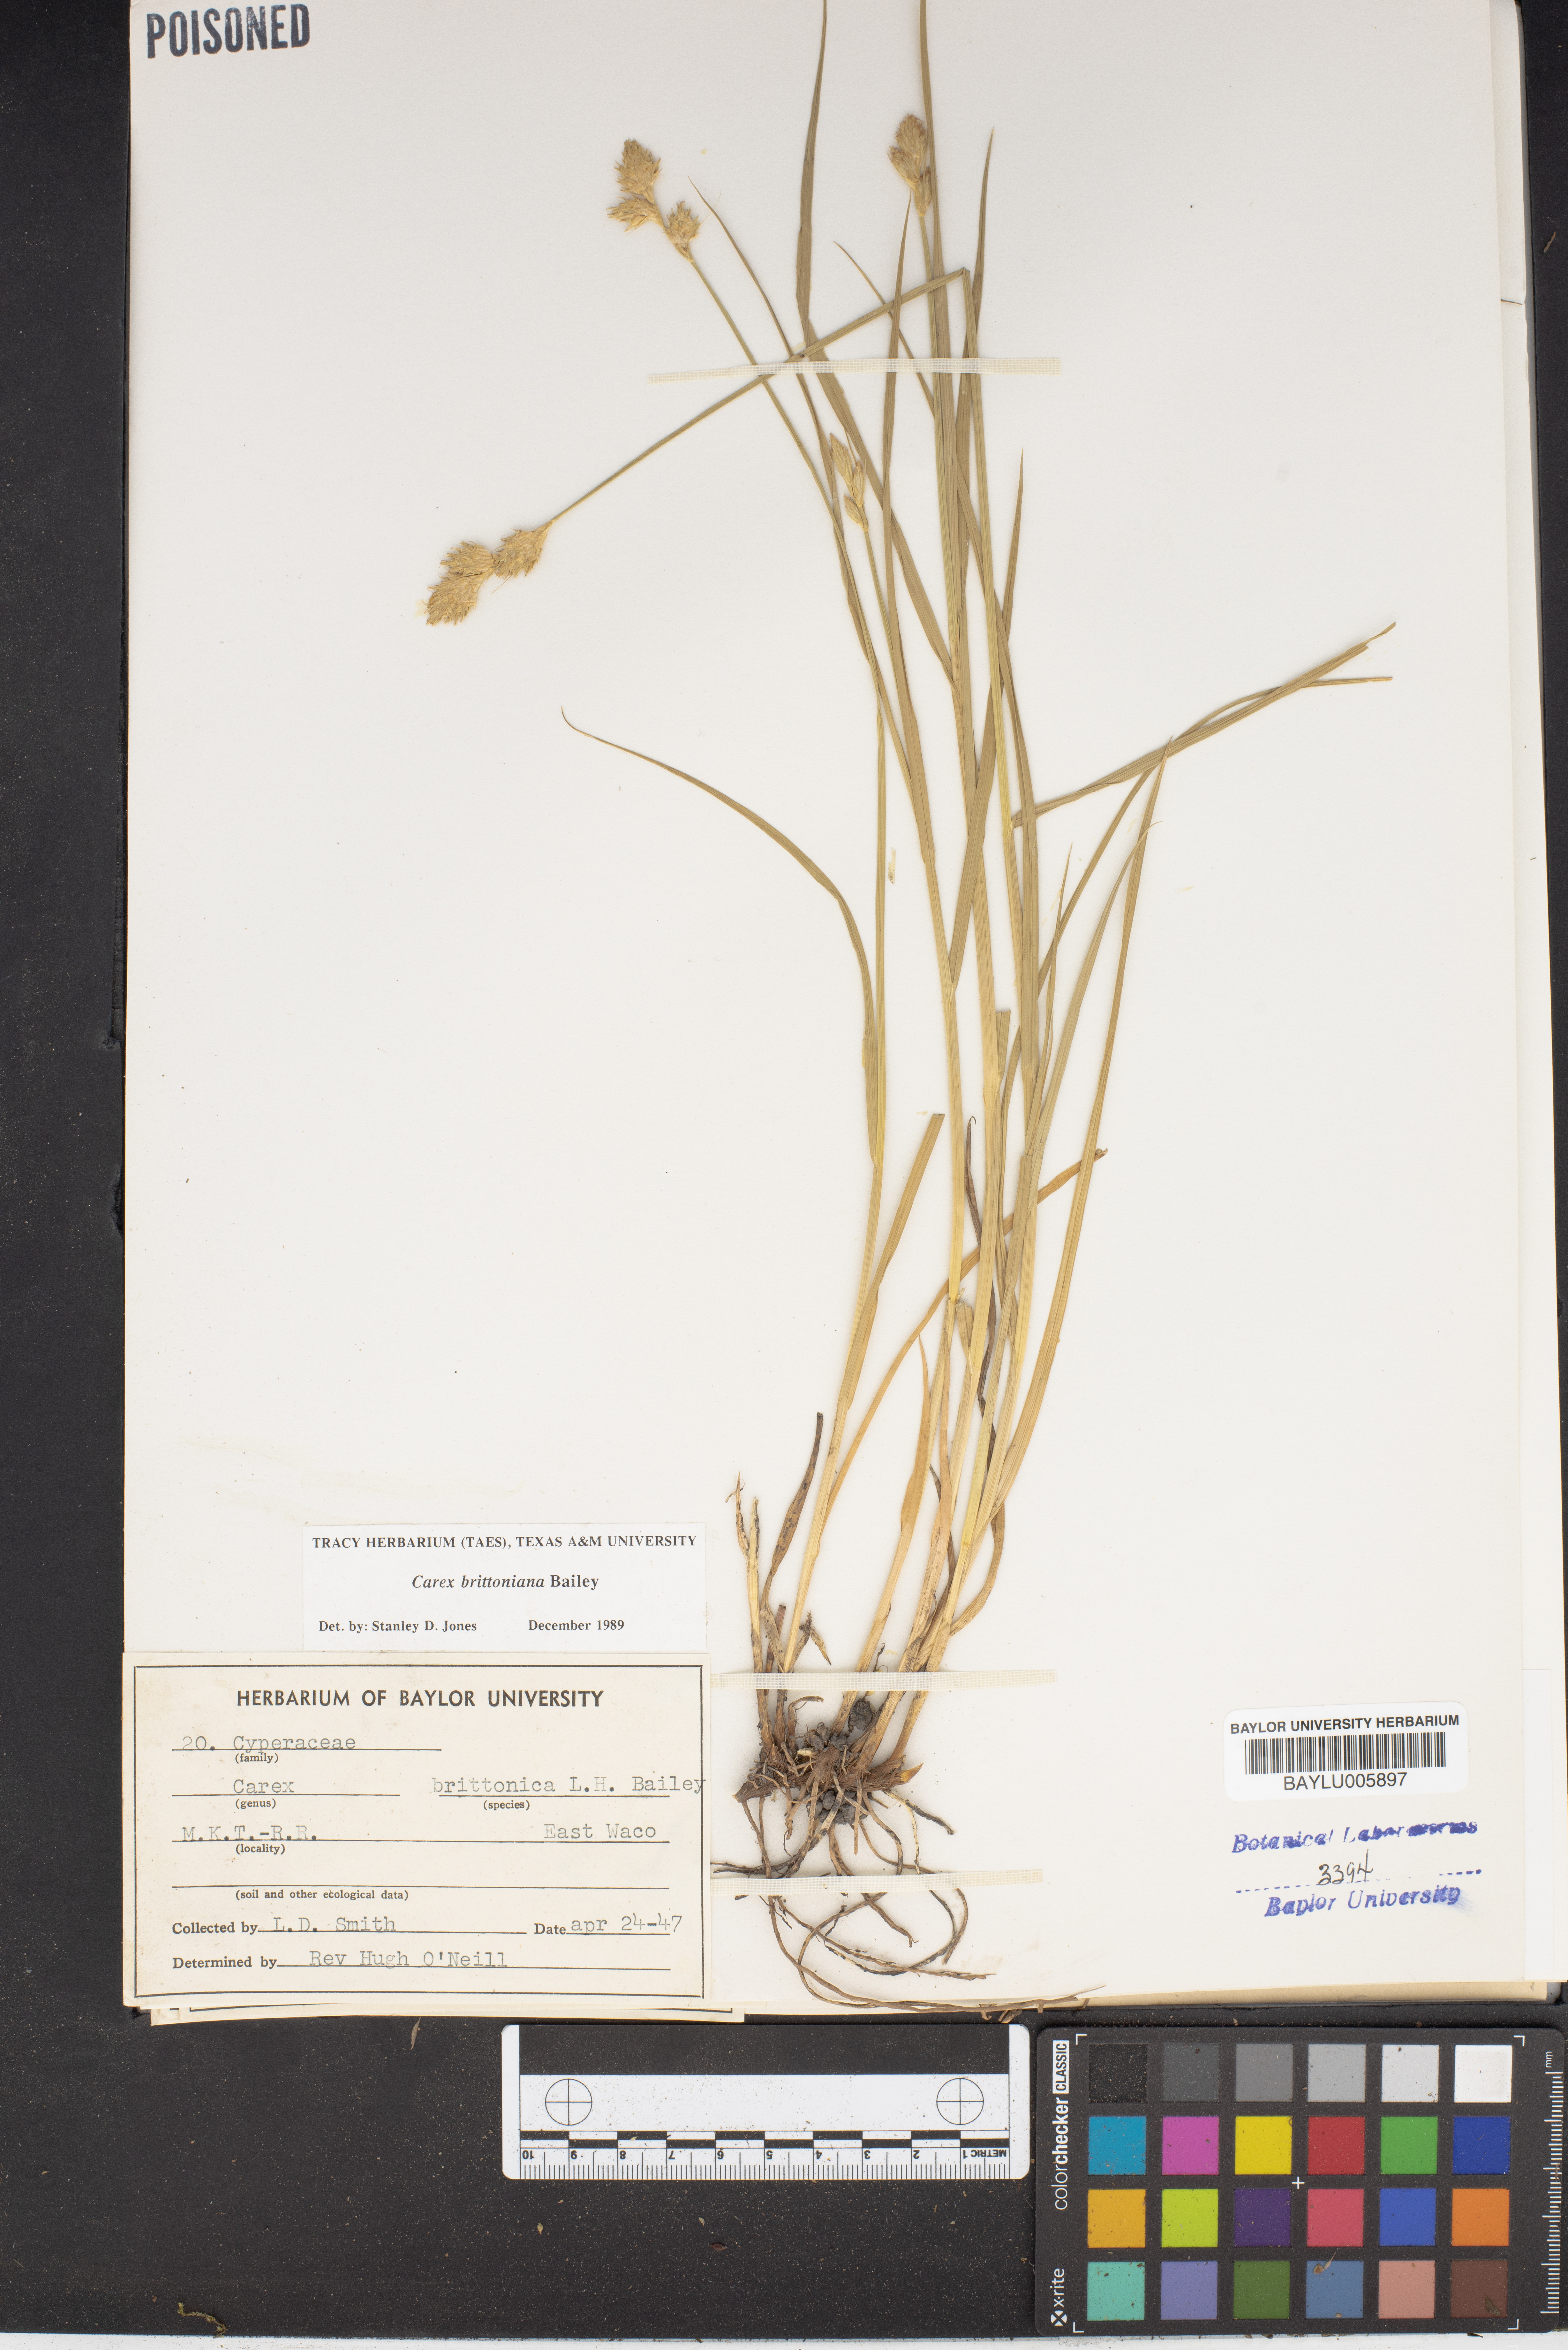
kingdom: Plantae
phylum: Tracheophyta
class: Liliopsida
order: Poales
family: Cyperaceae
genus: Carex
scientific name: Carex tetrastachya
